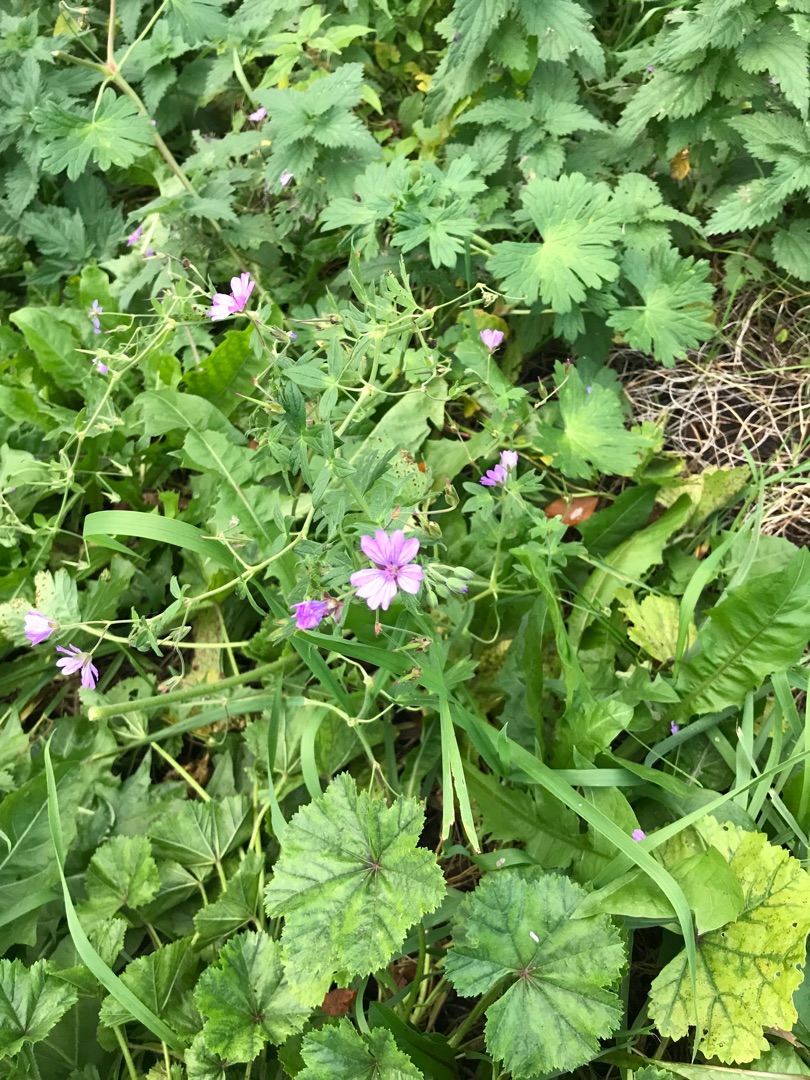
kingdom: Plantae
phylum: Tracheophyta
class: Magnoliopsida
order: Geraniales
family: Geraniaceae
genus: Geranium
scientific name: Geranium pyrenaicum
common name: Pyrenæisk storkenæb
